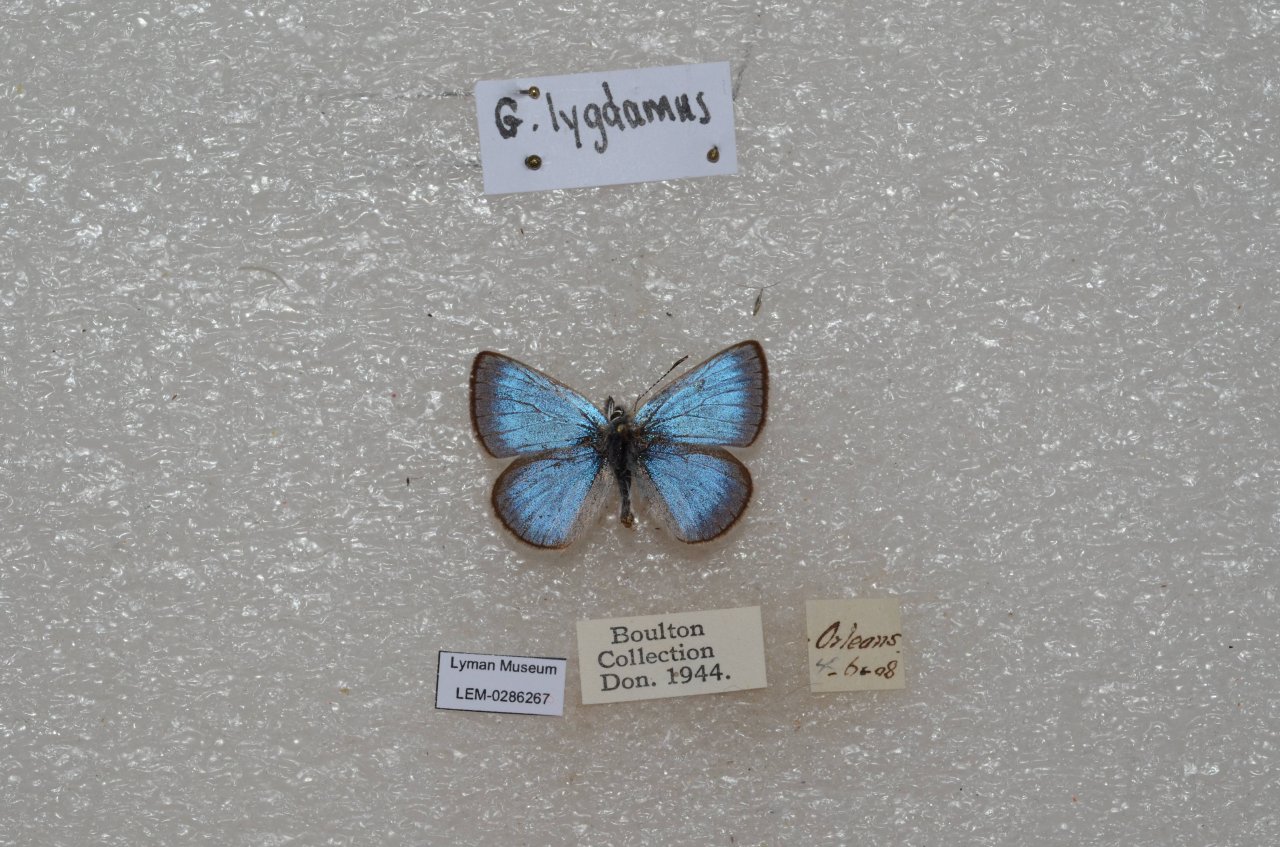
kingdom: Animalia
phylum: Arthropoda
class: Insecta
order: Lepidoptera
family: Lycaenidae
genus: Glaucopsyche
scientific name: Glaucopsyche lygdamus
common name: Silvery Blue
